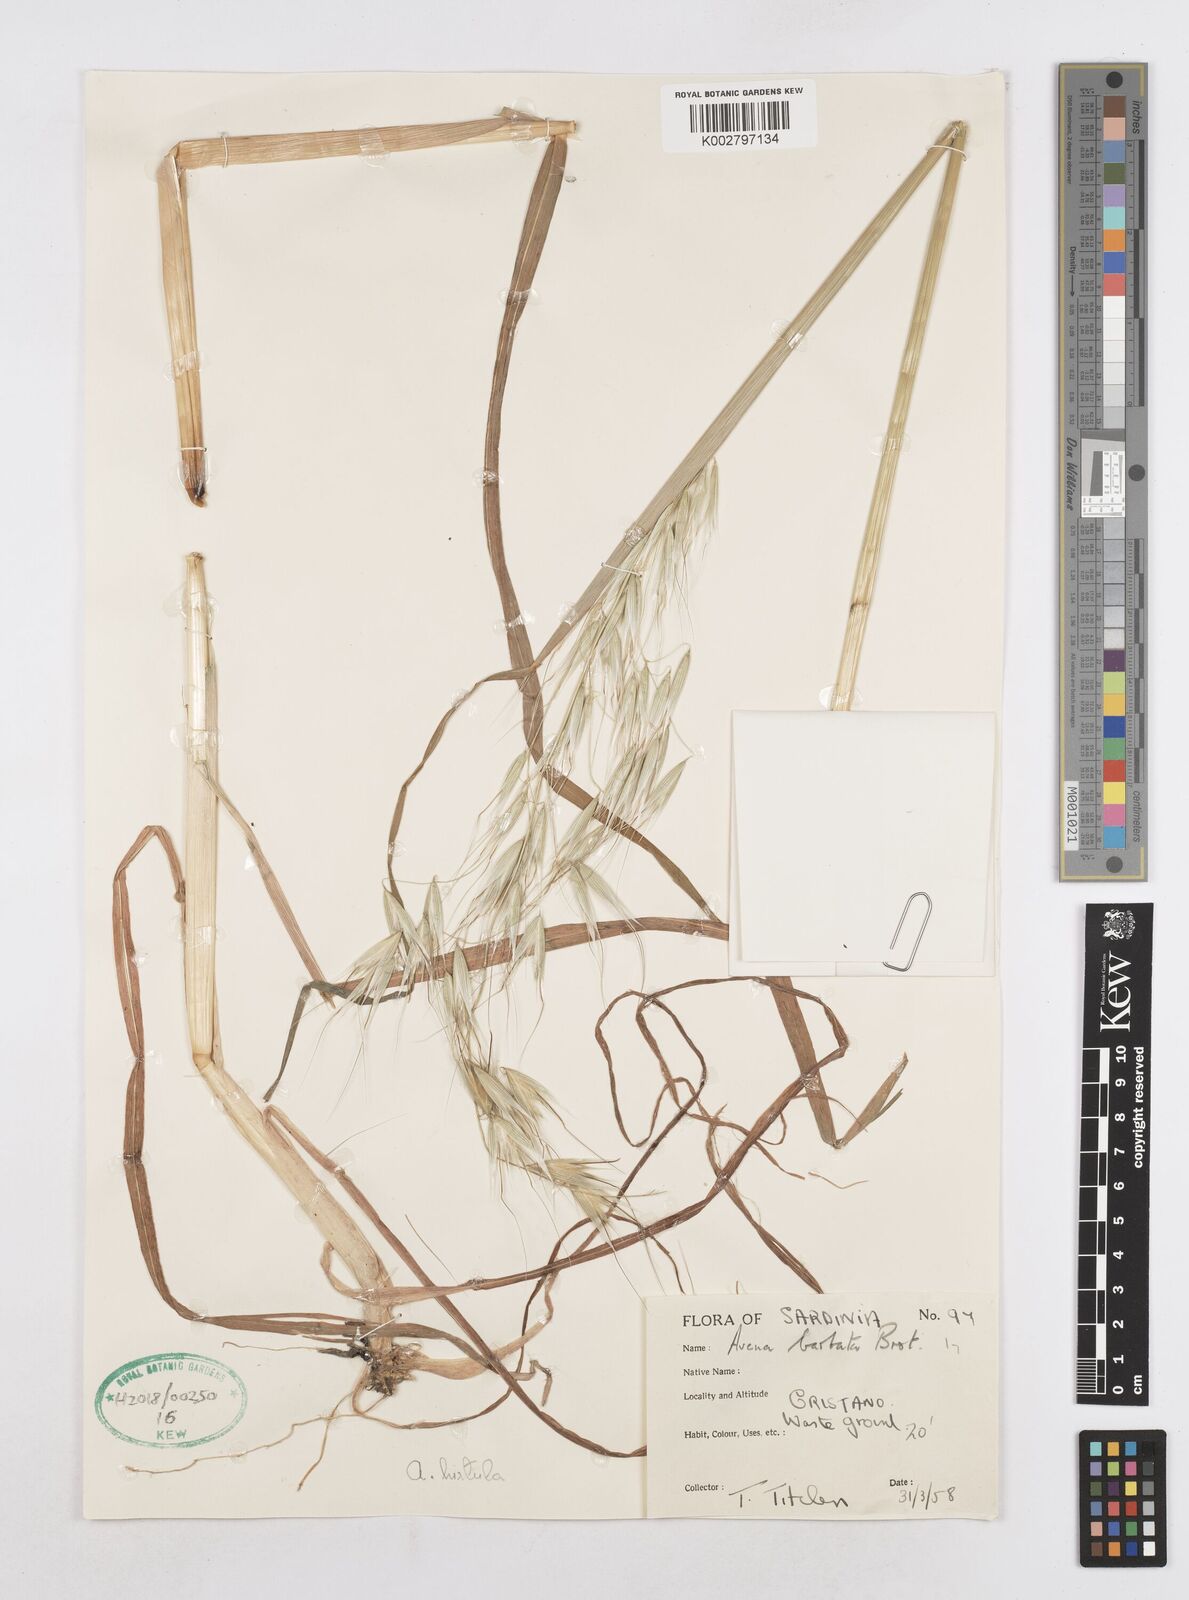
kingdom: Plantae
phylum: Tracheophyta
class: Liliopsida
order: Poales
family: Poaceae
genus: Avena
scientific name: Avena
